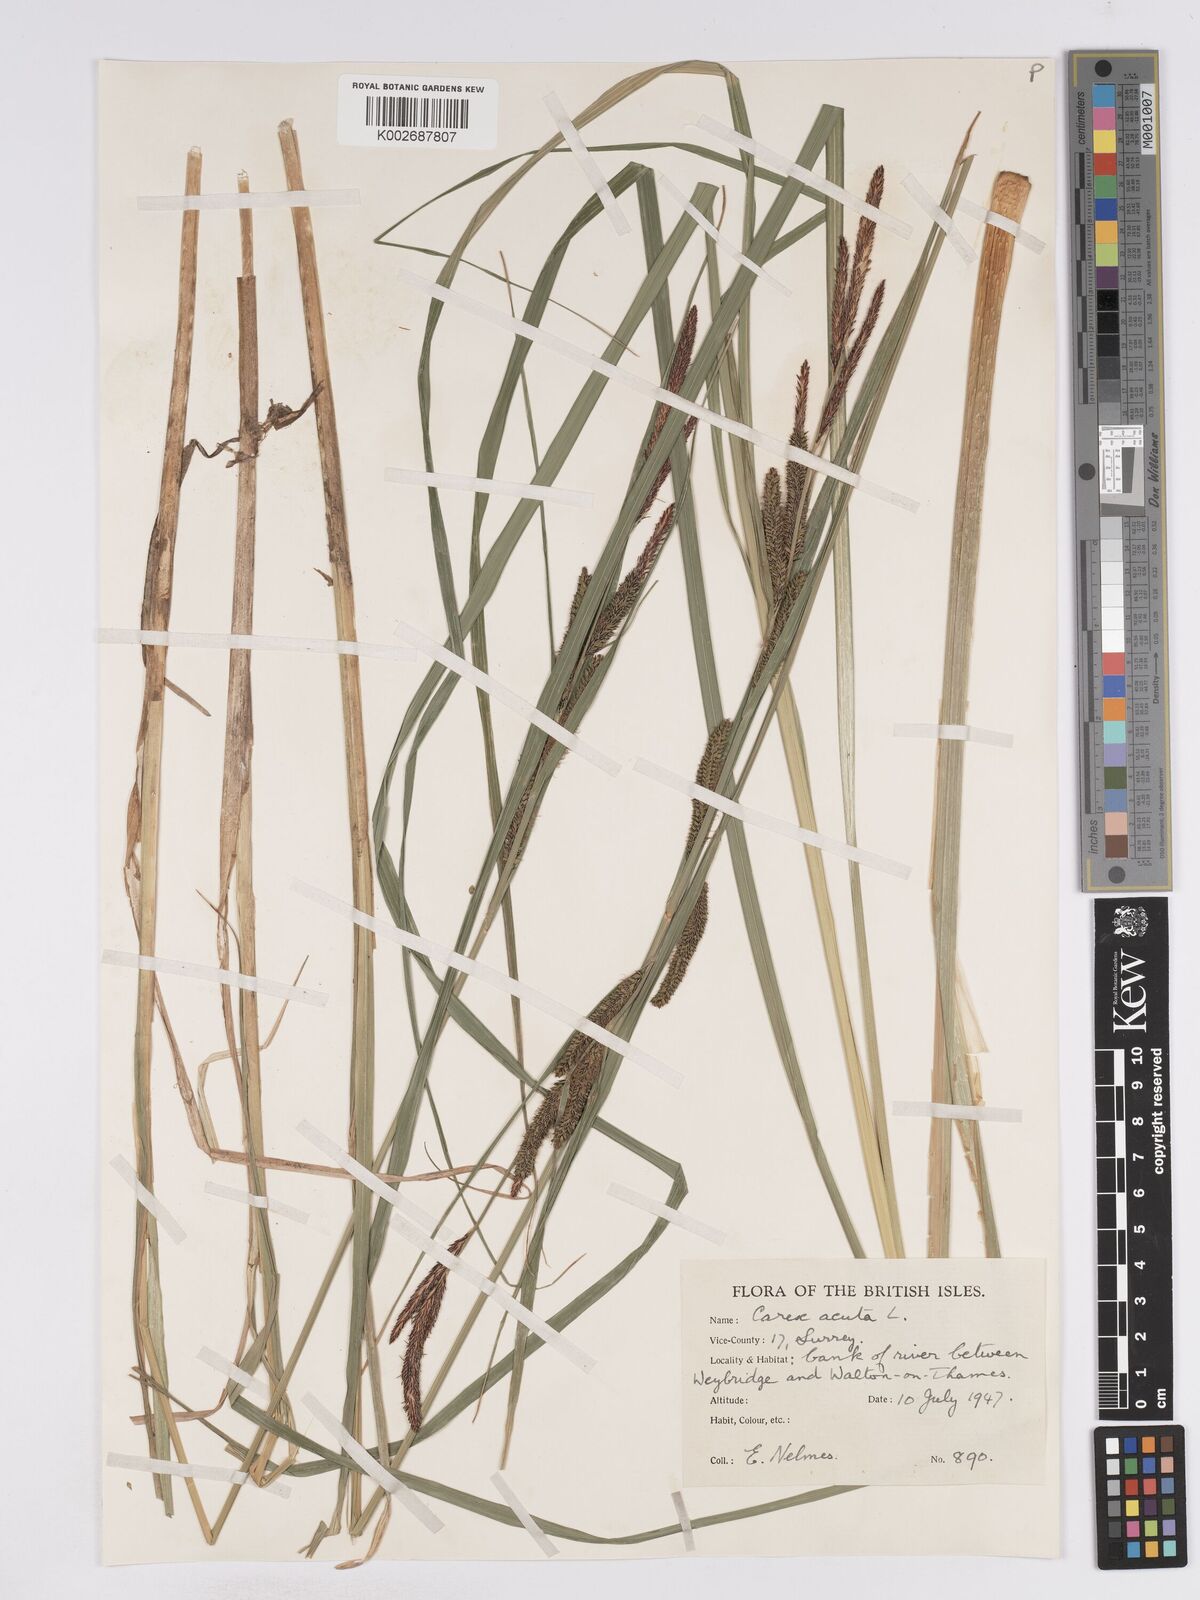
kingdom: Plantae
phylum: Tracheophyta
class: Liliopsida
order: Poales
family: Cyperaceae
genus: Carex
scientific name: Carex acuta
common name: Slender tufted-sedge
